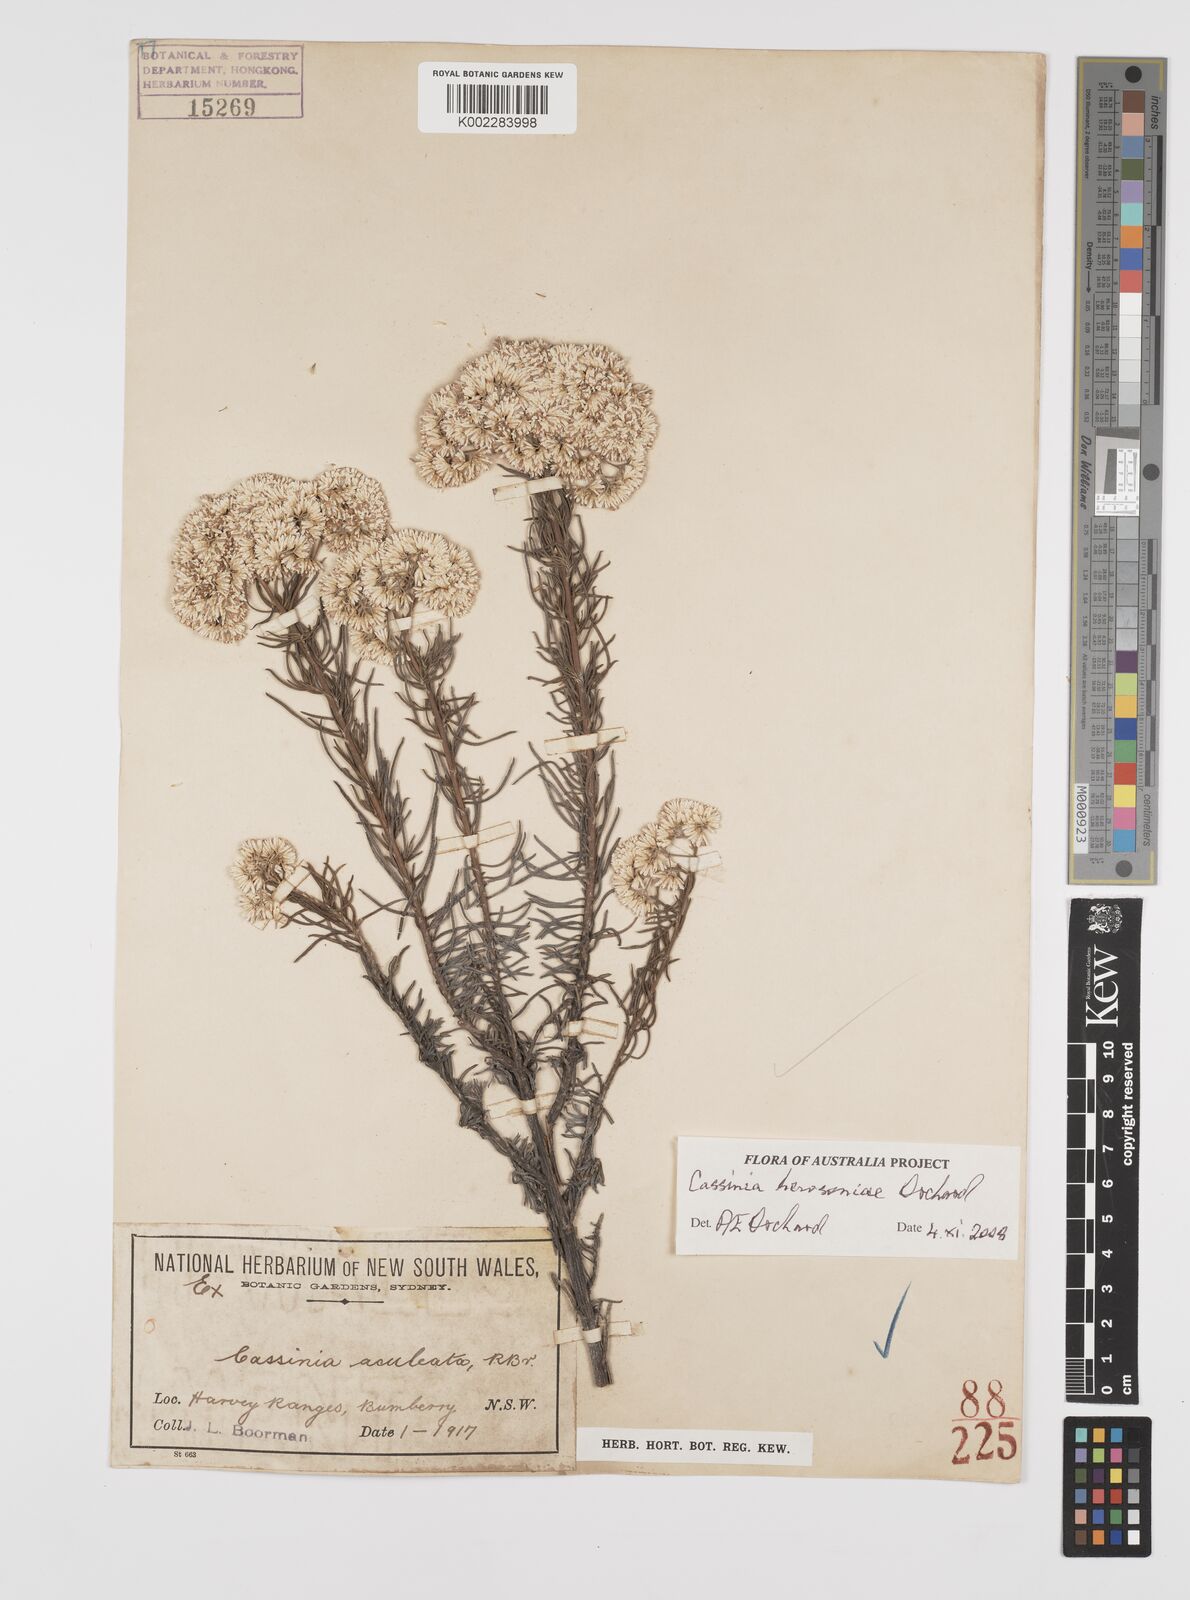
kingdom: Plantae
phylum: Tracheophyta
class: Magnoliopsida
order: Asterales
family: Asteraceae
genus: Cassinia
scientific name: Cassinia hewsoniae
